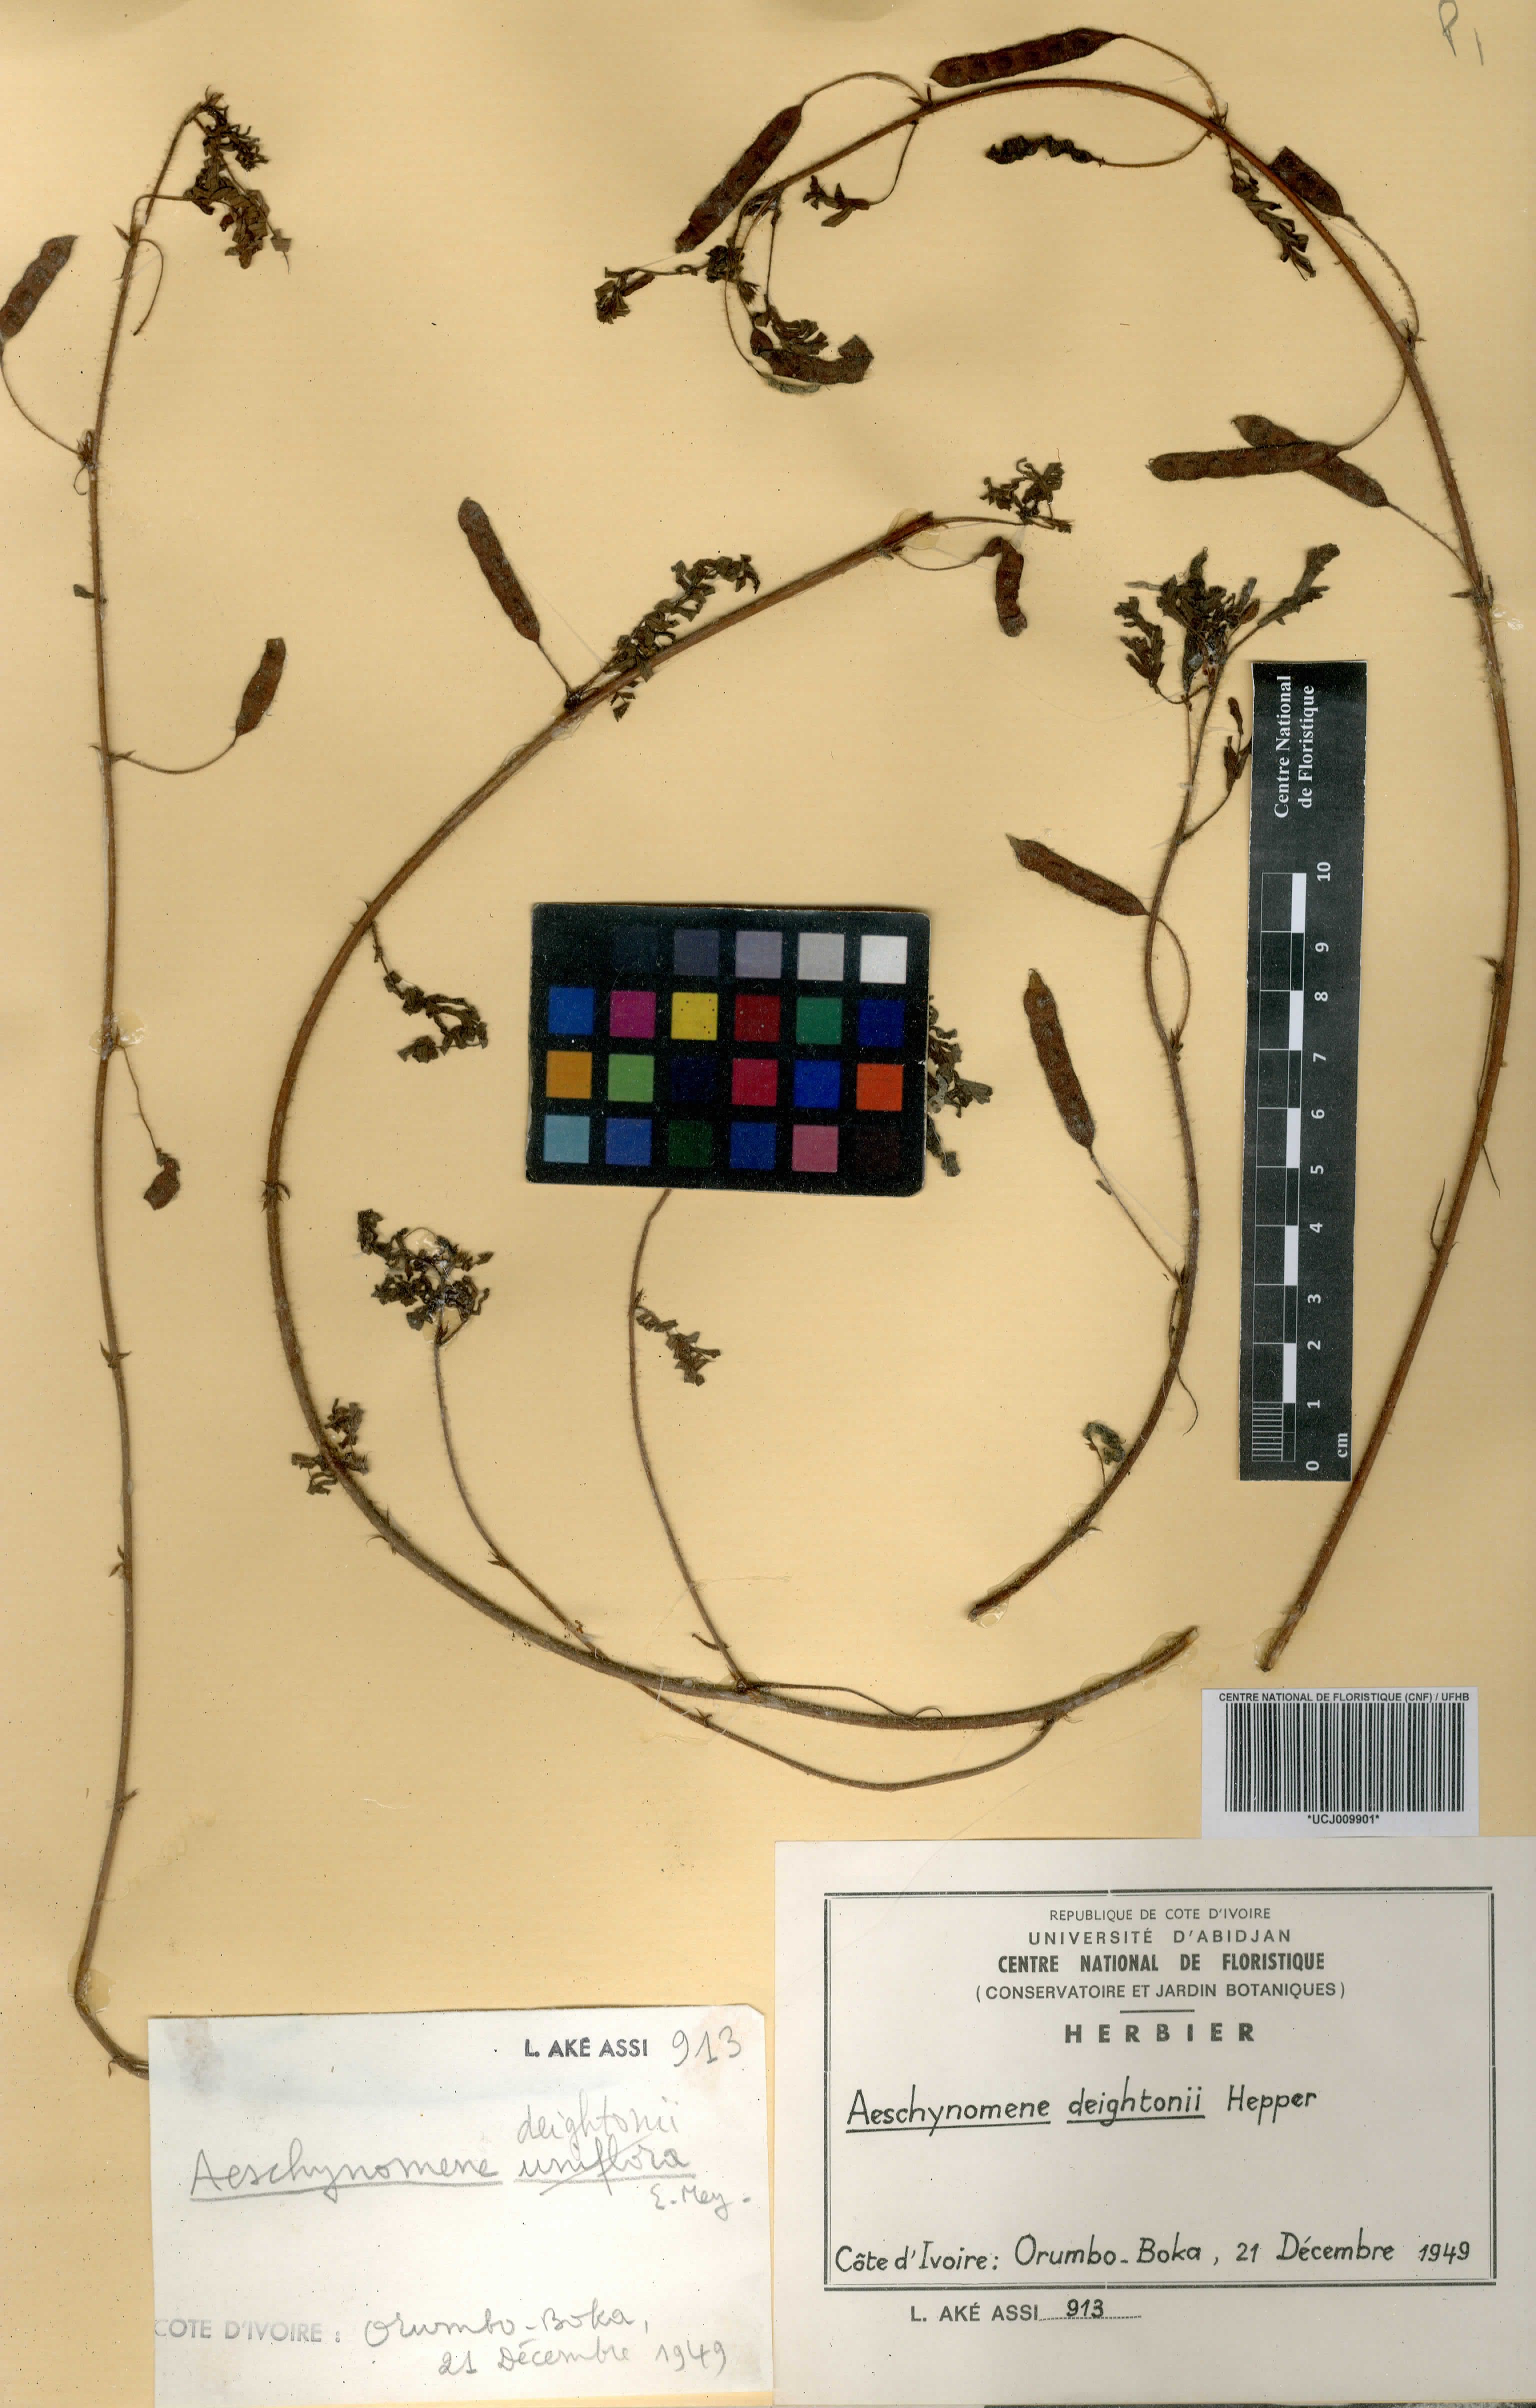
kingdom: Plantae
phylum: Tracheophyta
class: Magnoliopsida
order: Fabales
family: Fabaceae
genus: Aeschynomene
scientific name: Aeschynomene deightonii
